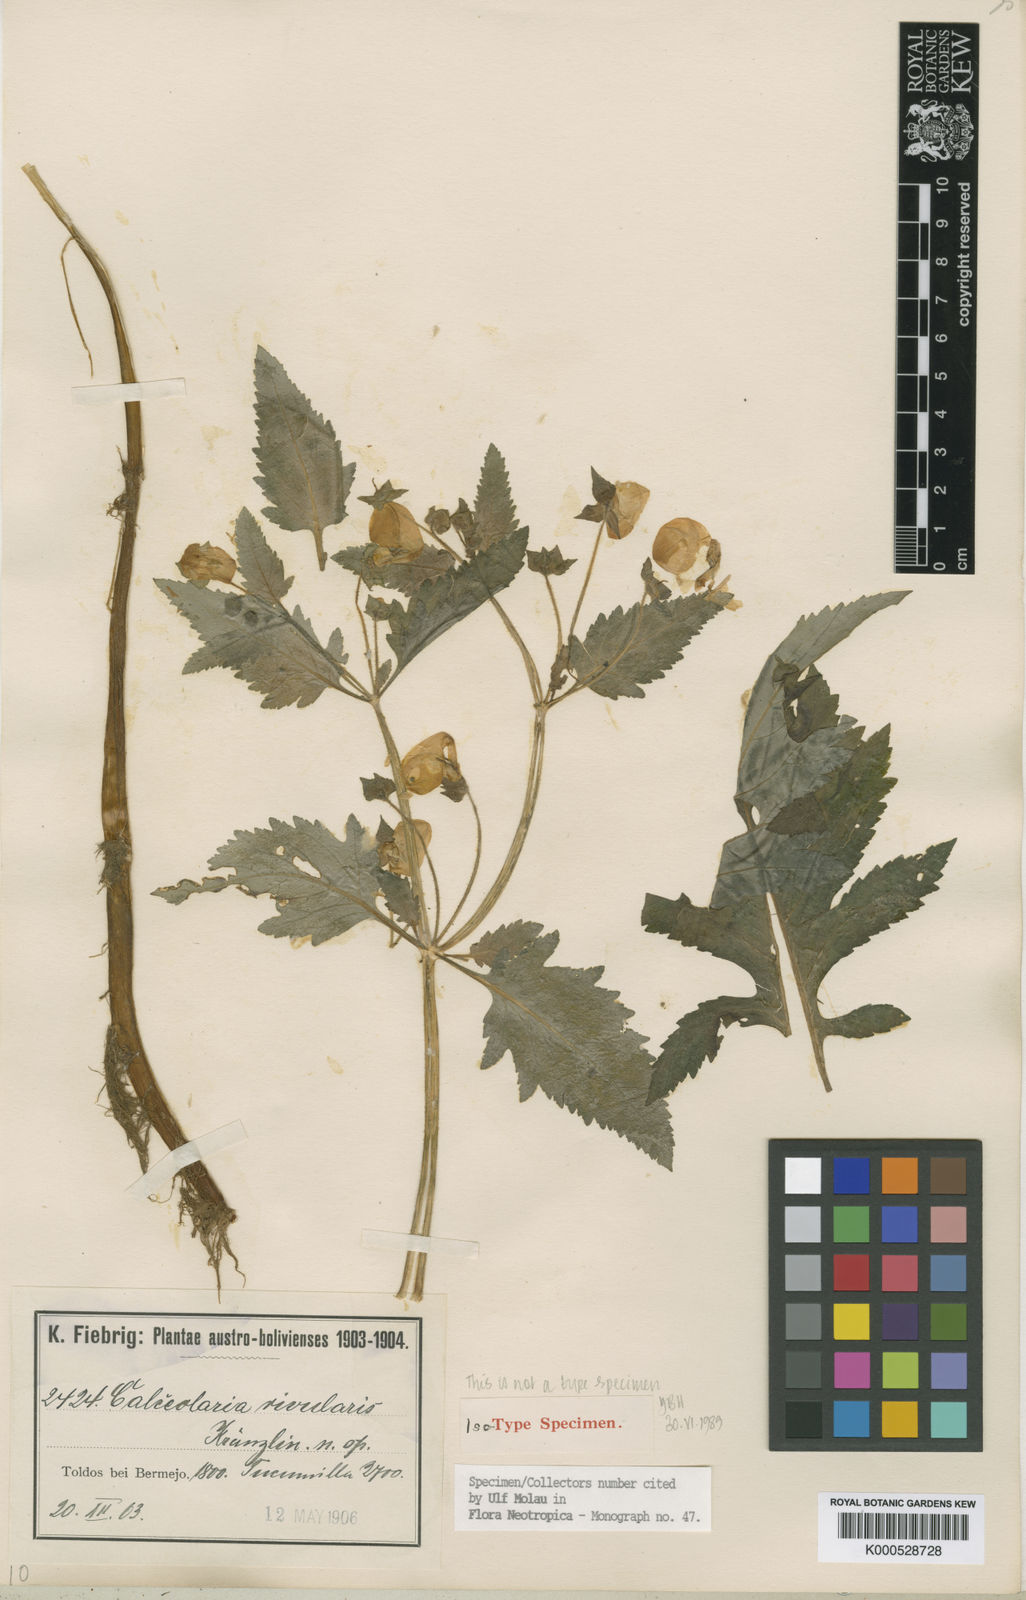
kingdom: Plantae
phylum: Tracheophyta
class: Magnoliopsida
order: Lamiales
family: Calceolariaceae
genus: Calceolaria
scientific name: Calceolaria rivularis
